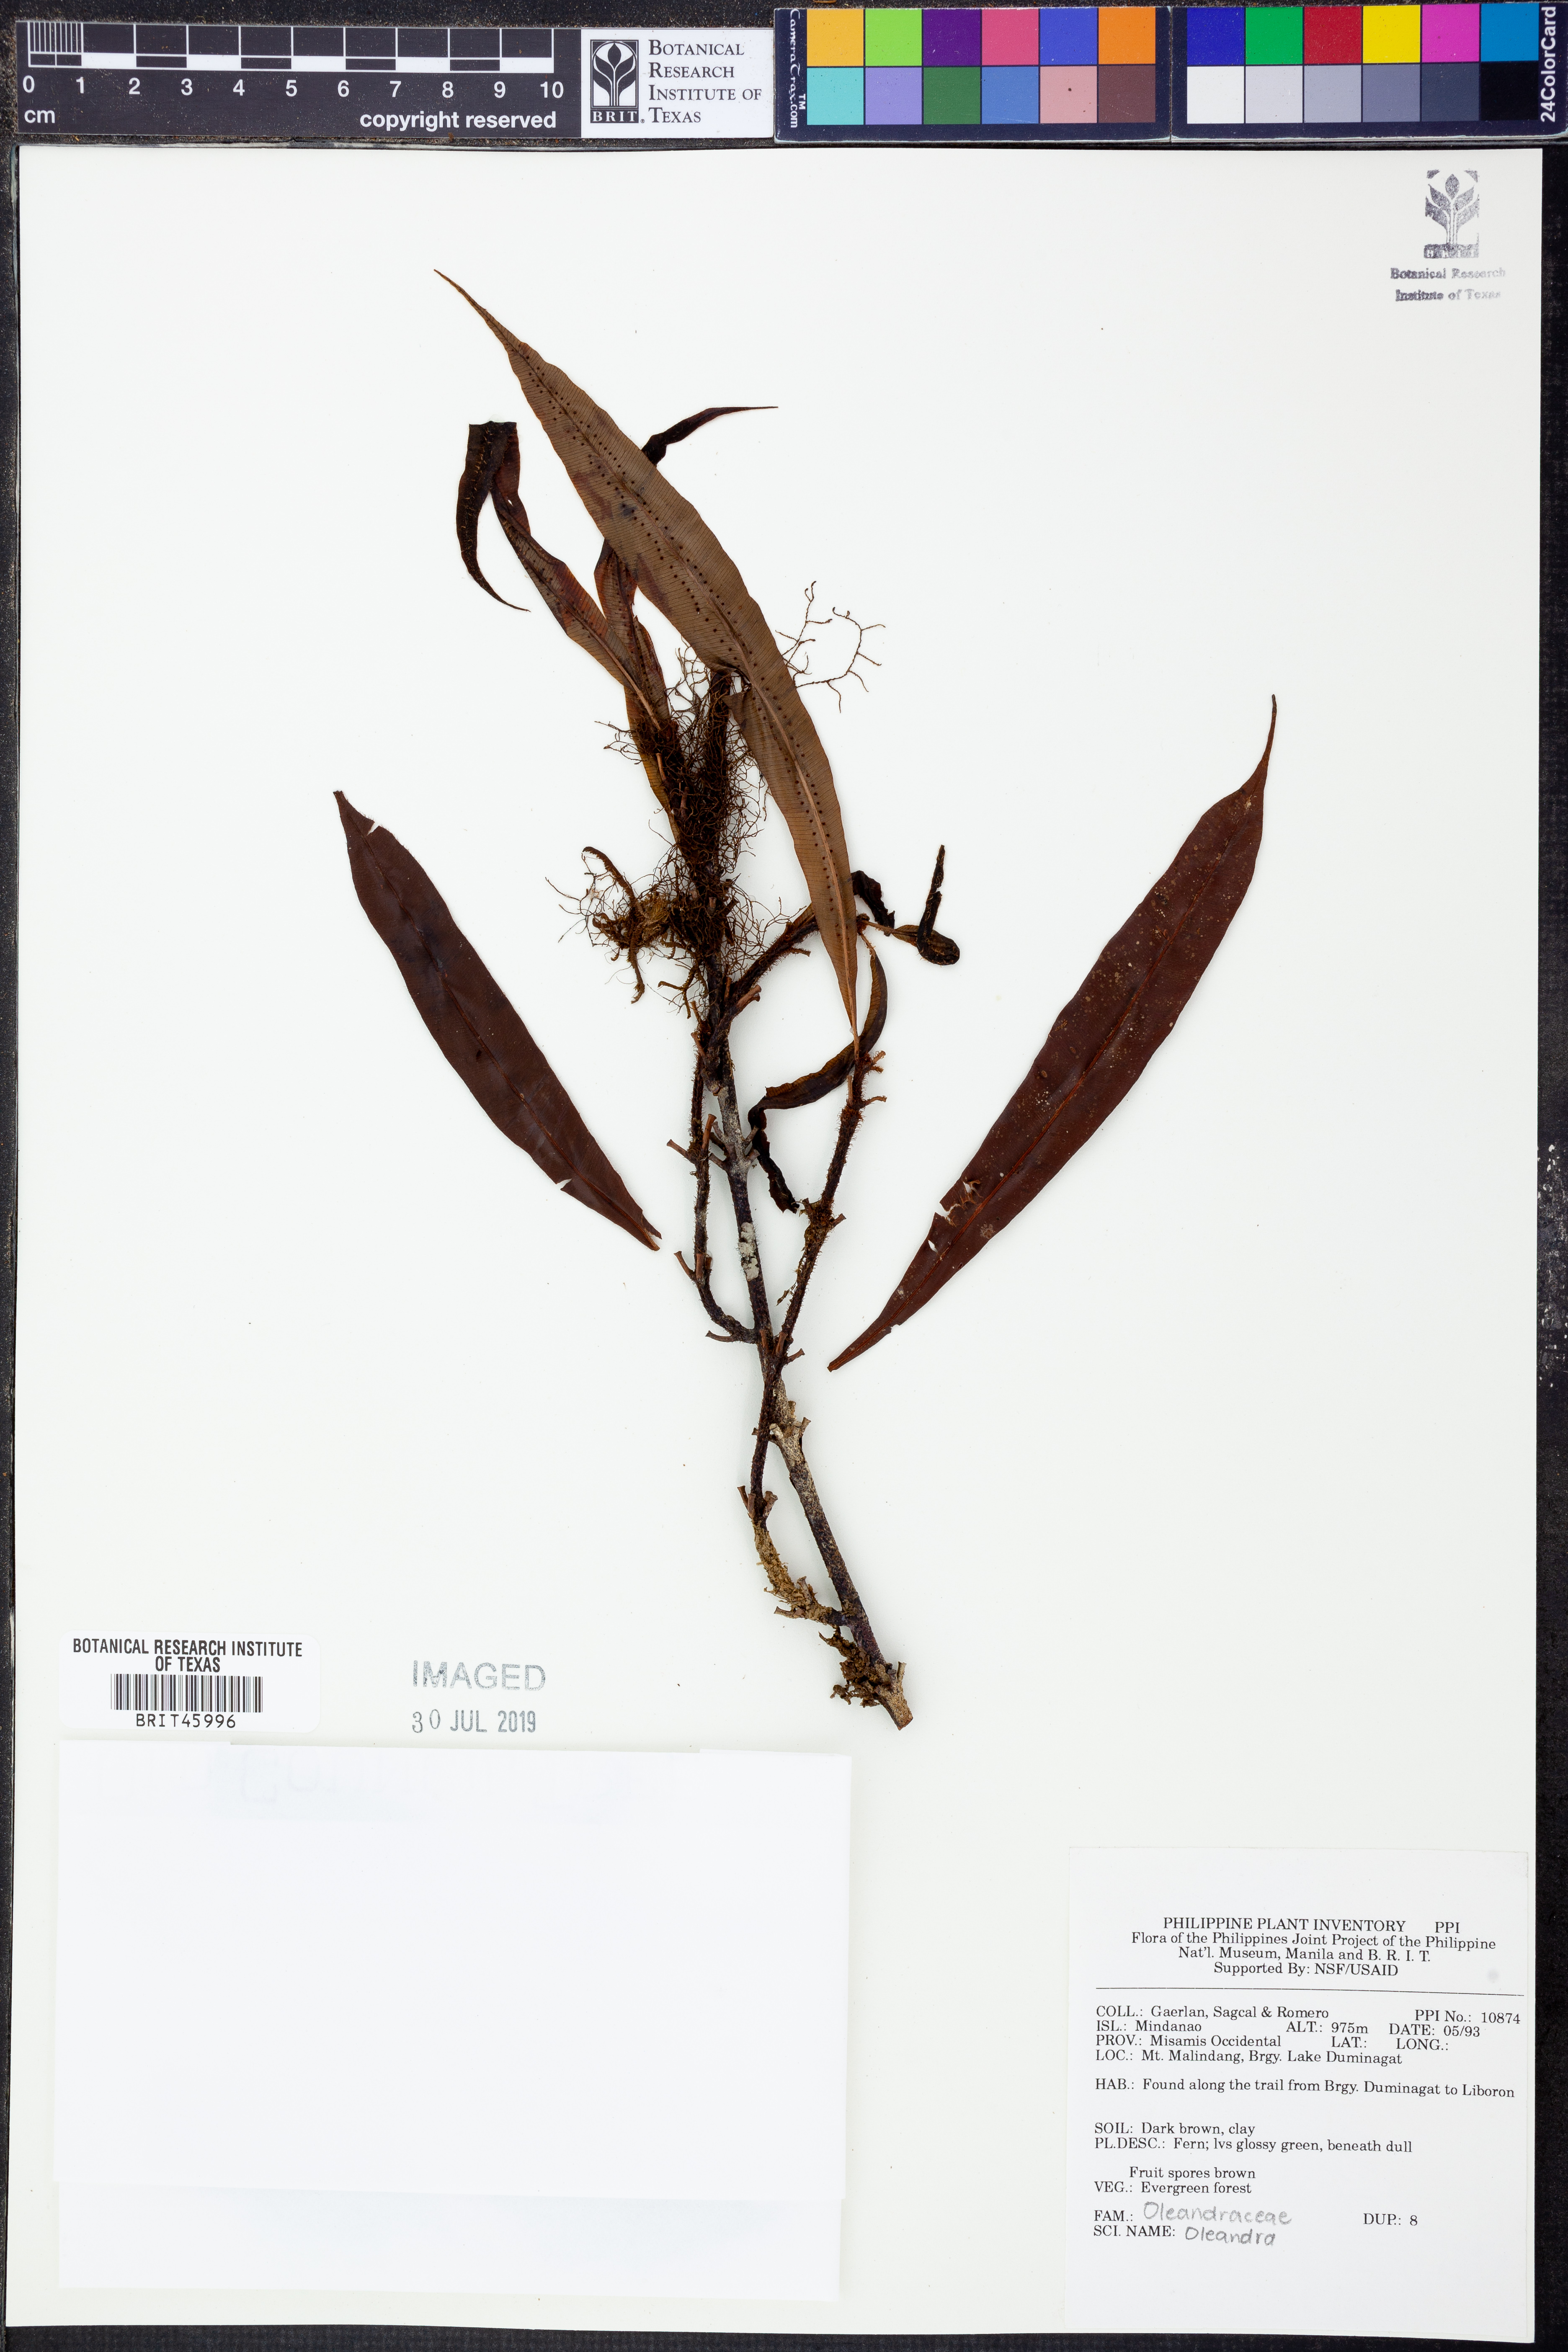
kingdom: Plantae
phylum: Tracheophyta
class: Polypodiopsida
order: Polypodiales
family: Oleandraceae
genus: Oleandra
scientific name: Oleandra
